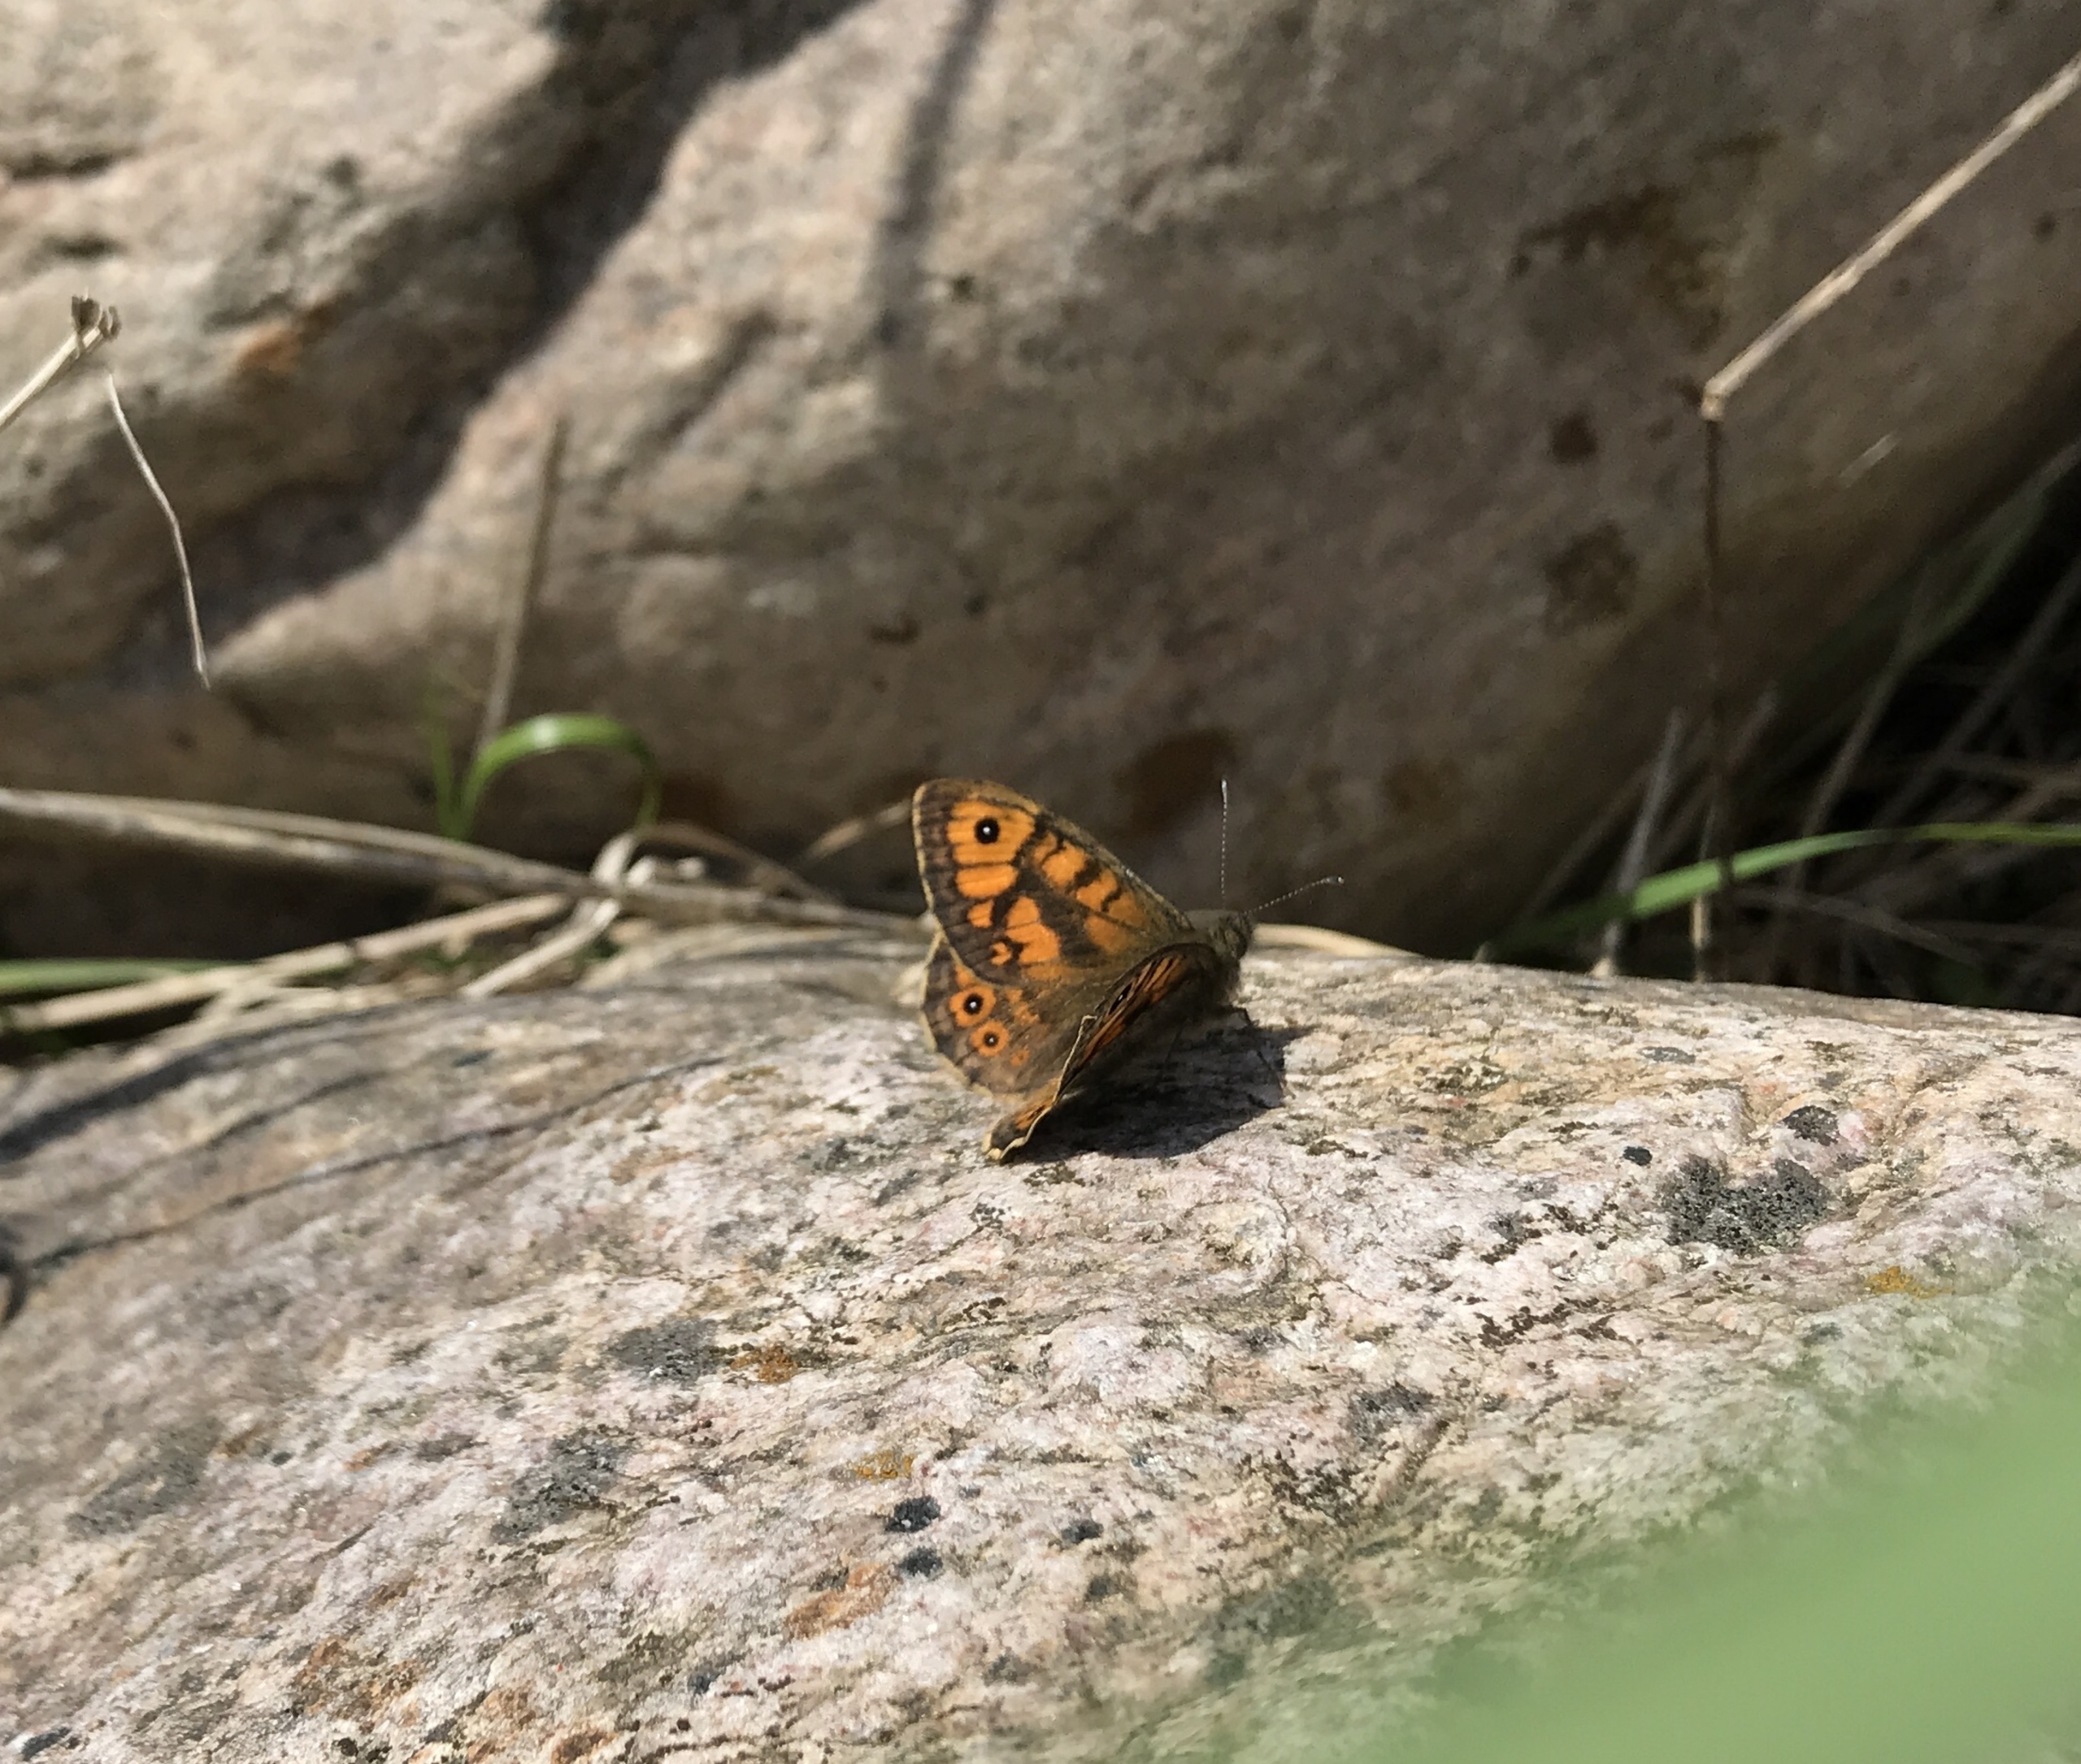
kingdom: Animalia
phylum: Arthropoda
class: Insecta
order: Lepidoptera
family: Nymphalidae
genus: Pararge
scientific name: Pararge Lasiommata megera
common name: Vejrandøje
